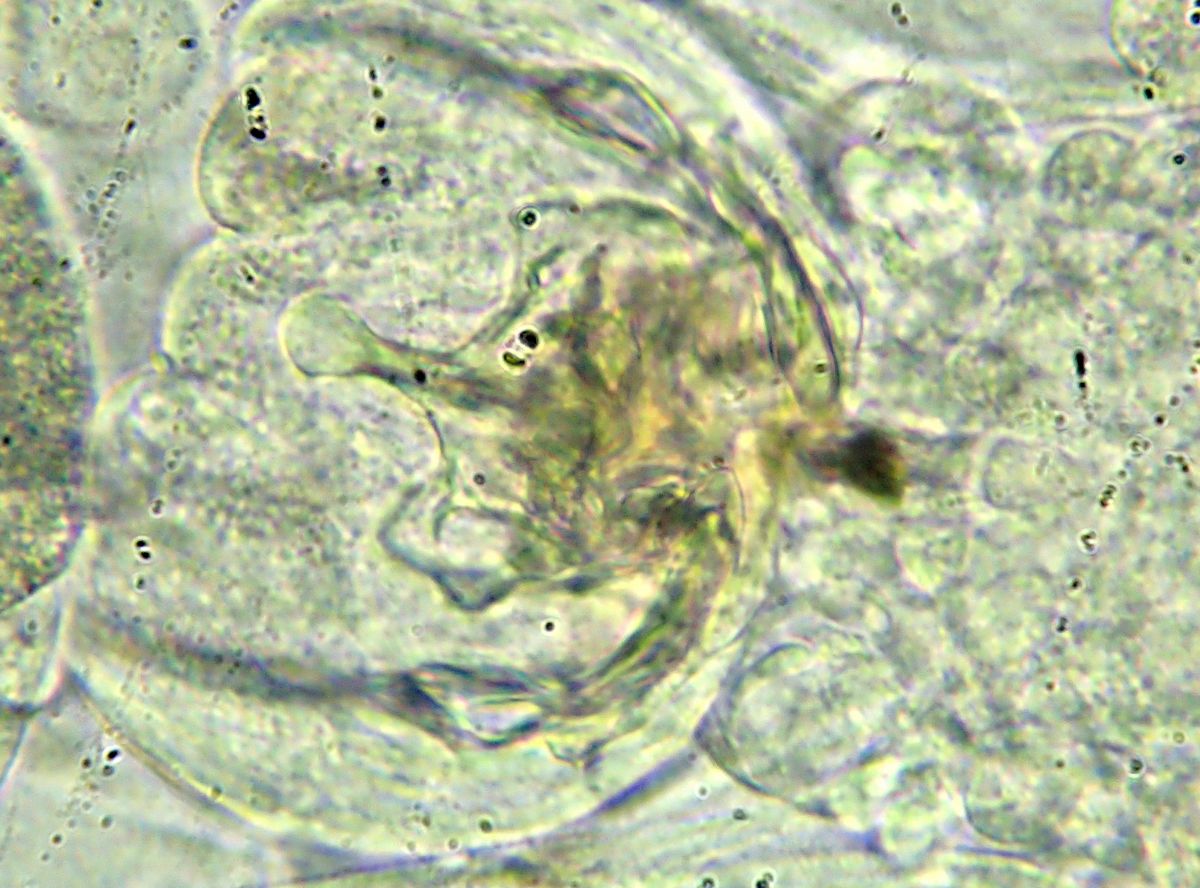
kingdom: Animalia
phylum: Rotifera
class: Eurotatoria
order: Ploima
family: Euchlanidae
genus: Euchlanis
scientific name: Euchlanis dilatata
